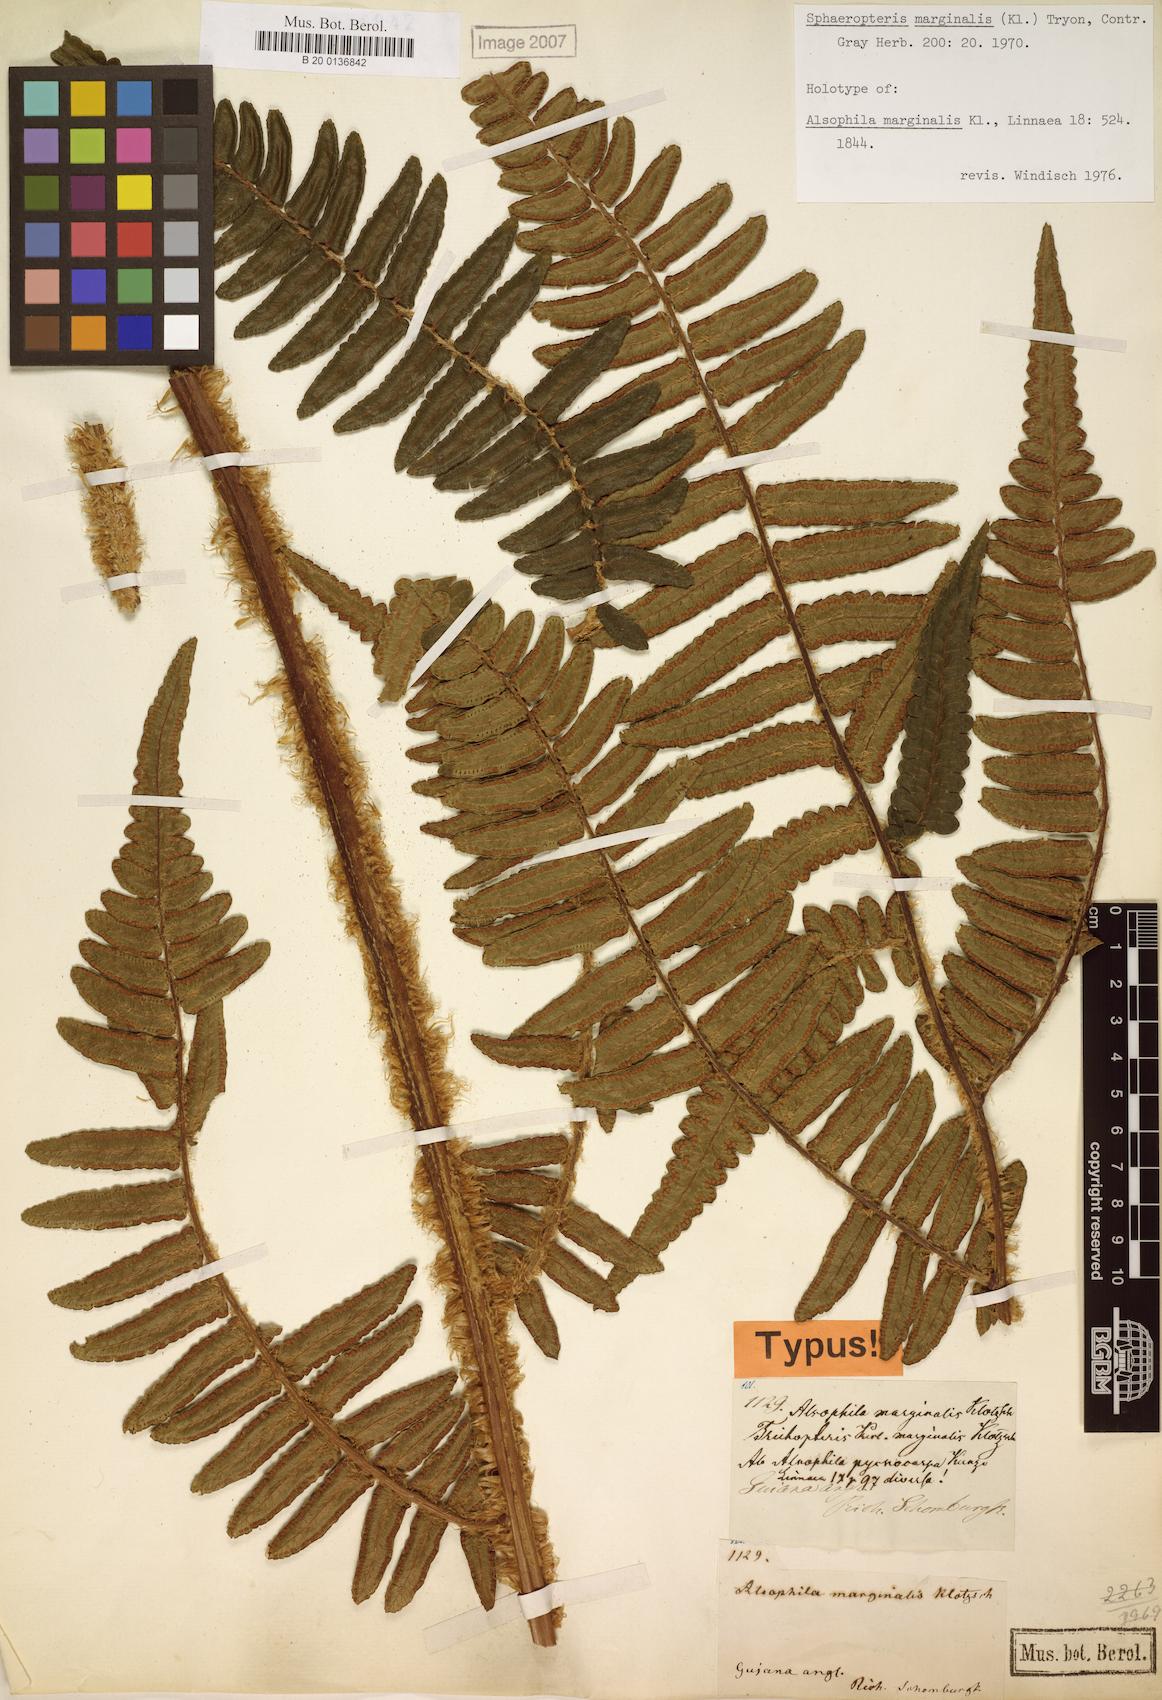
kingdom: Plantae
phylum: Tracheophyta
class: Polypodiopsida
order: Cyatheales
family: Cyatheaceae
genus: Cyathea
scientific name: Cyathea marginalis
